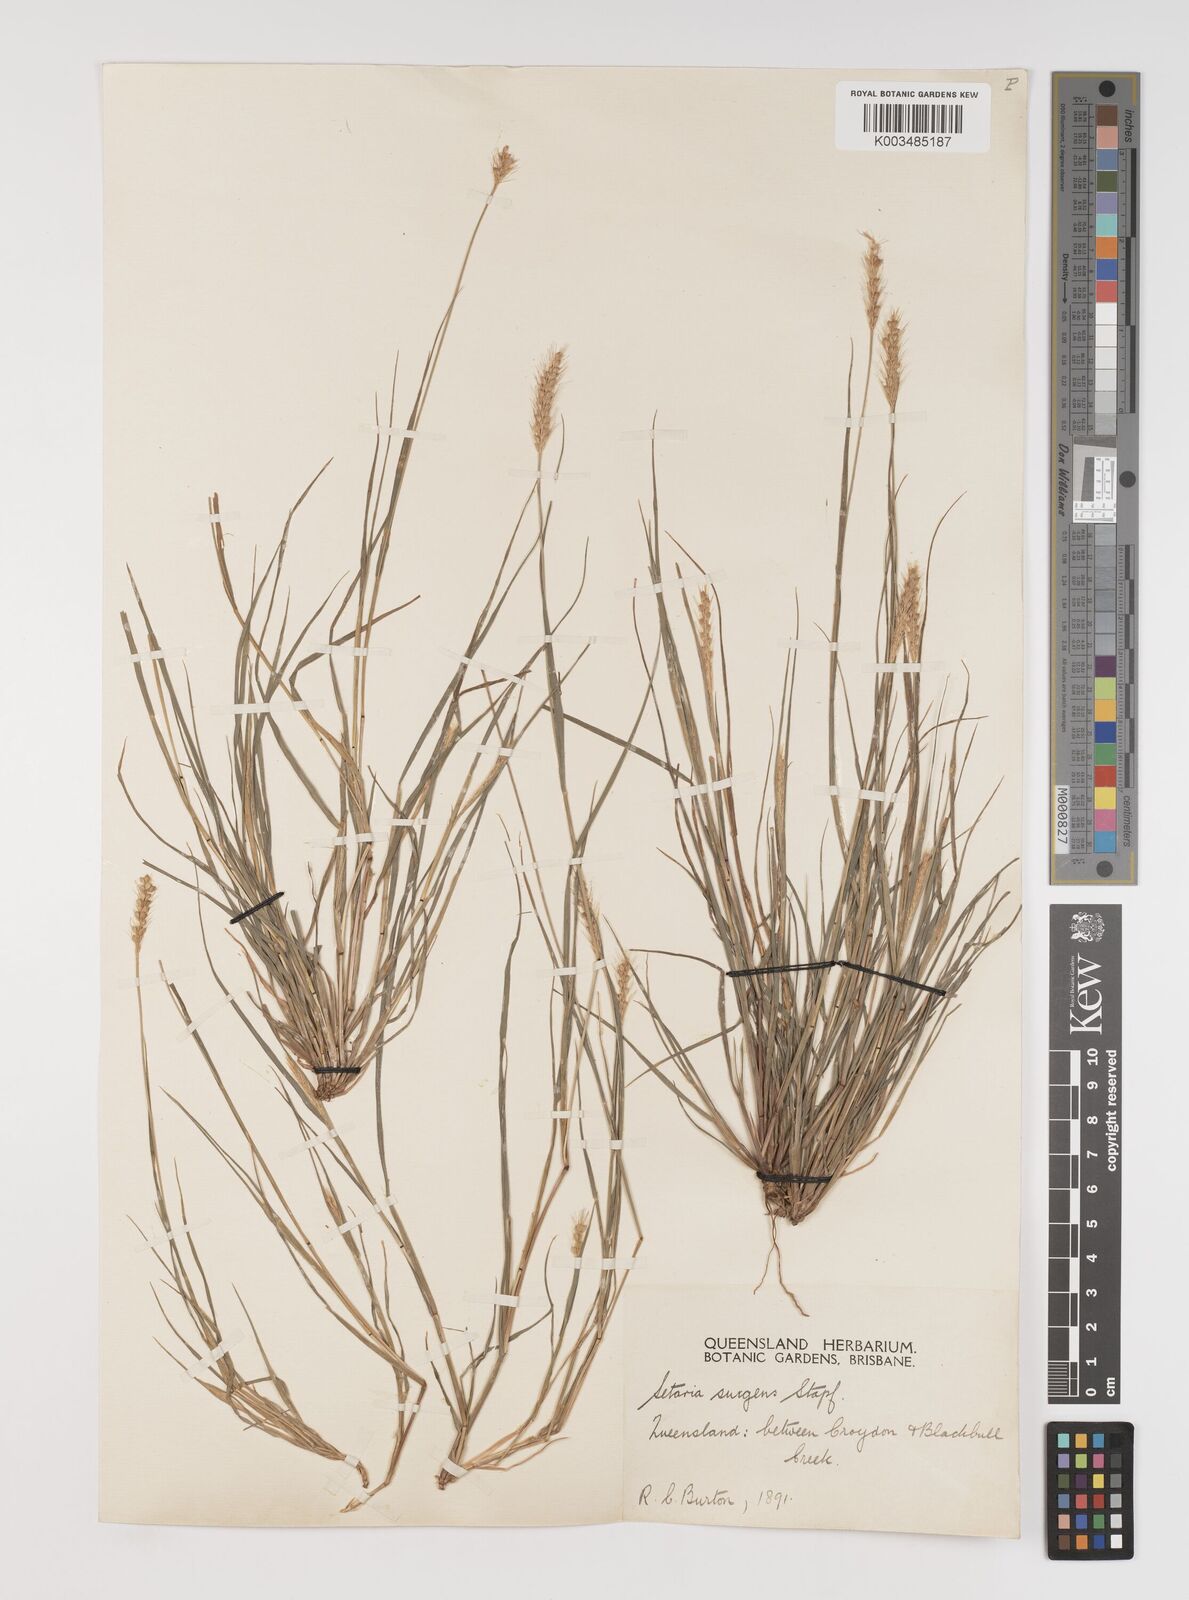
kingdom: Plantae
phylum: Tracheophyta
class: Liliopsida
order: Poales
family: Poaceae
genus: Setaria
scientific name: Setaria apiculata
